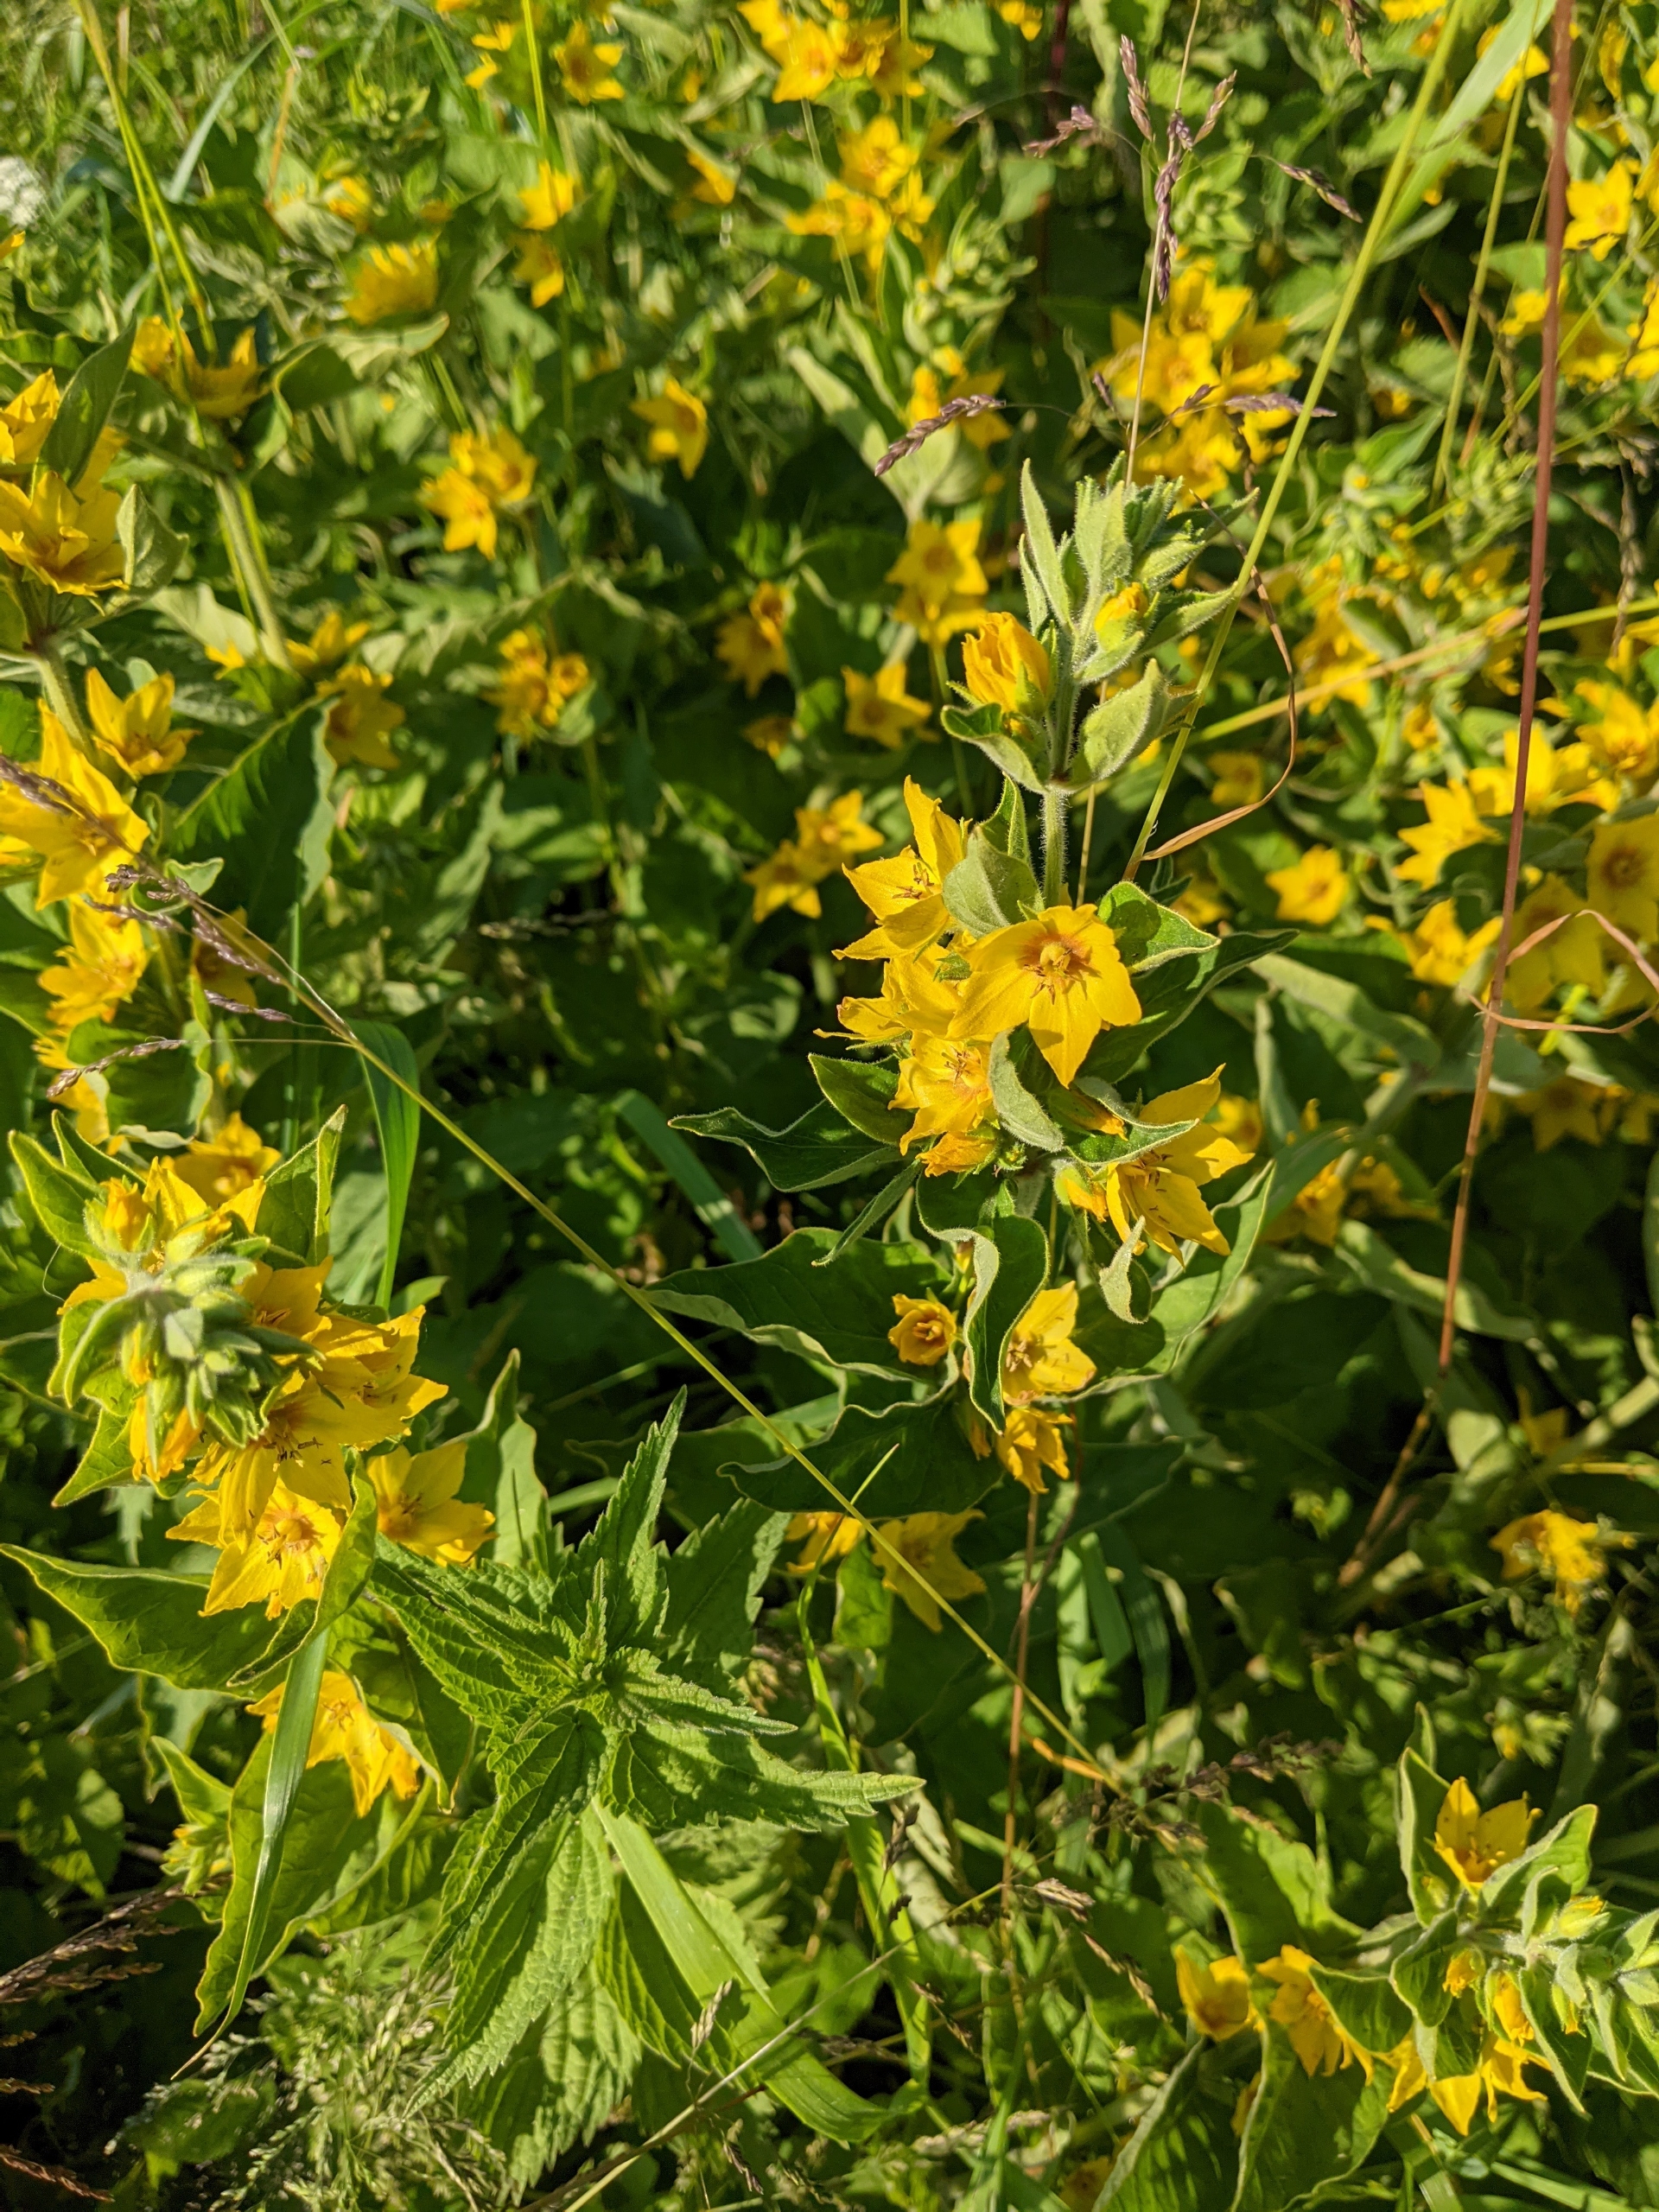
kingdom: Plantae
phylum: Tracheophyta
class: Magnoliopsida
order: Ericales
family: Primulaceae
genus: Lysimachia
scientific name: Lysimachia punctata
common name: Prikbladet fredløs
